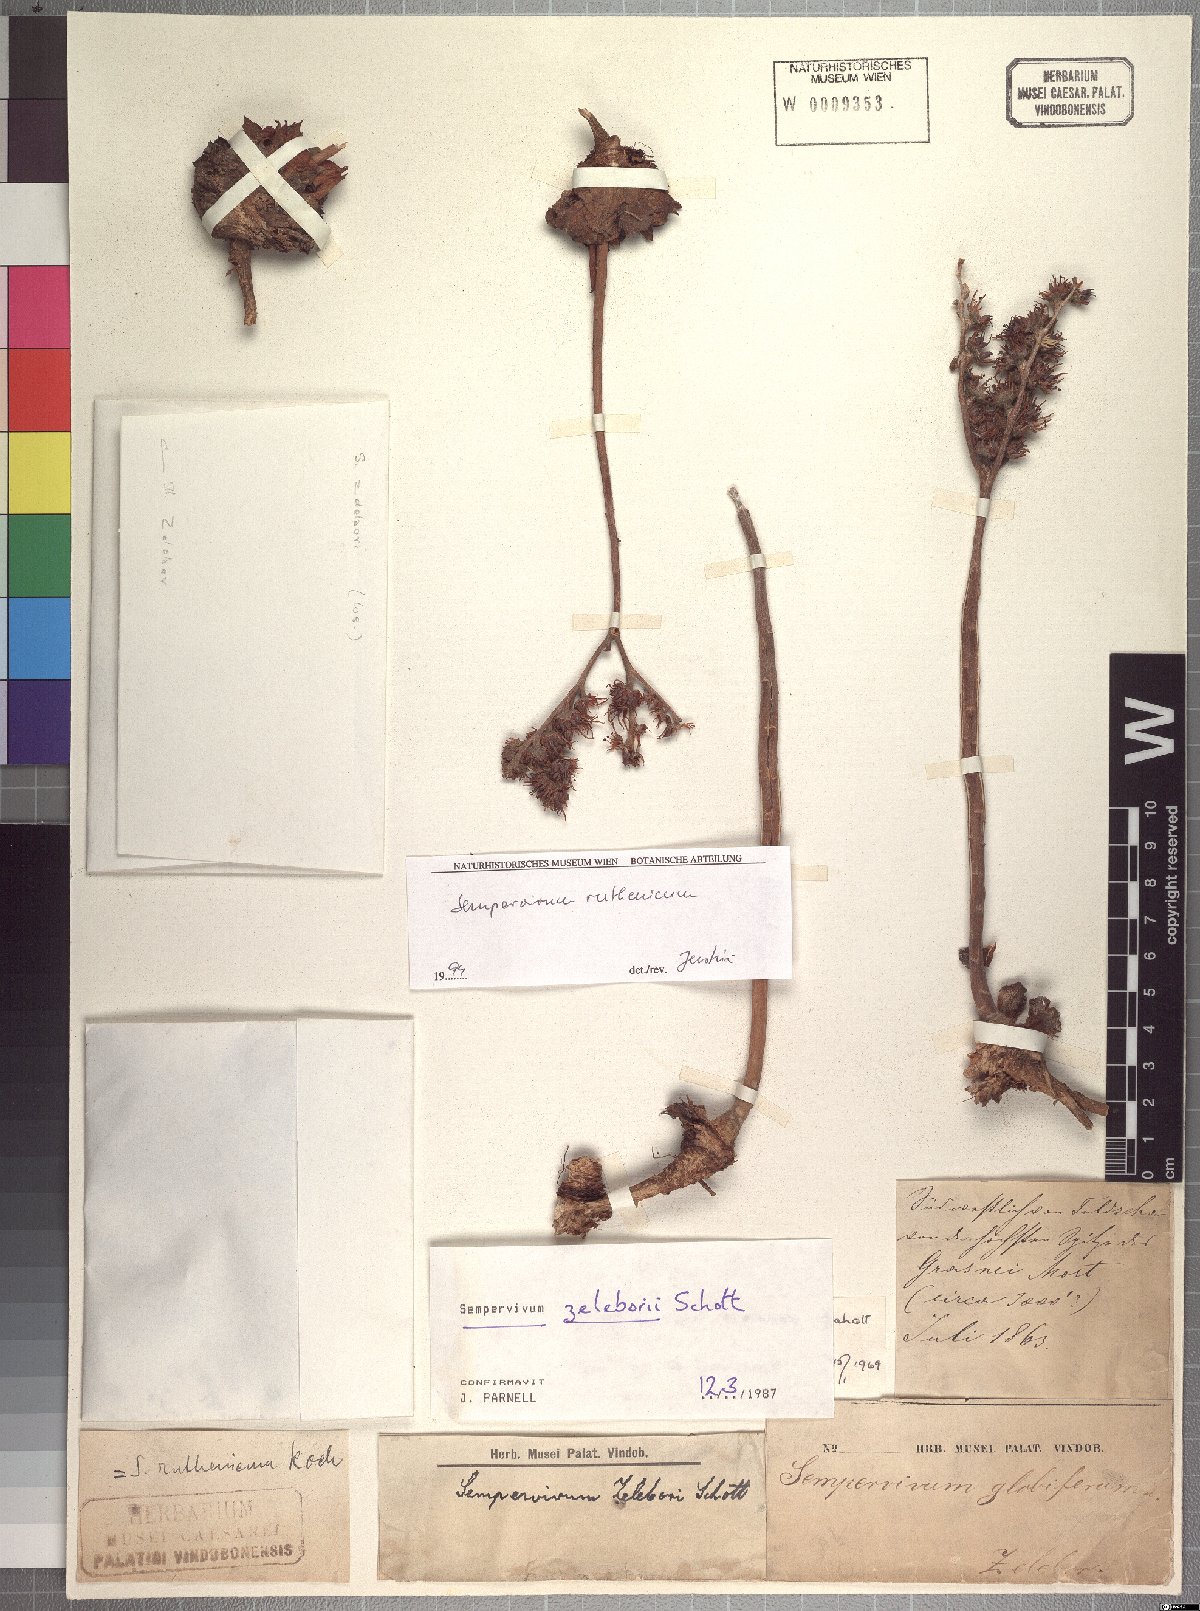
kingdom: Plantae
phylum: Tracheophyta
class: Magnoliopsida
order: Saxifragales
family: Crassulaceae
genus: Sempervivum
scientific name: Sempervivum ruthenicum
